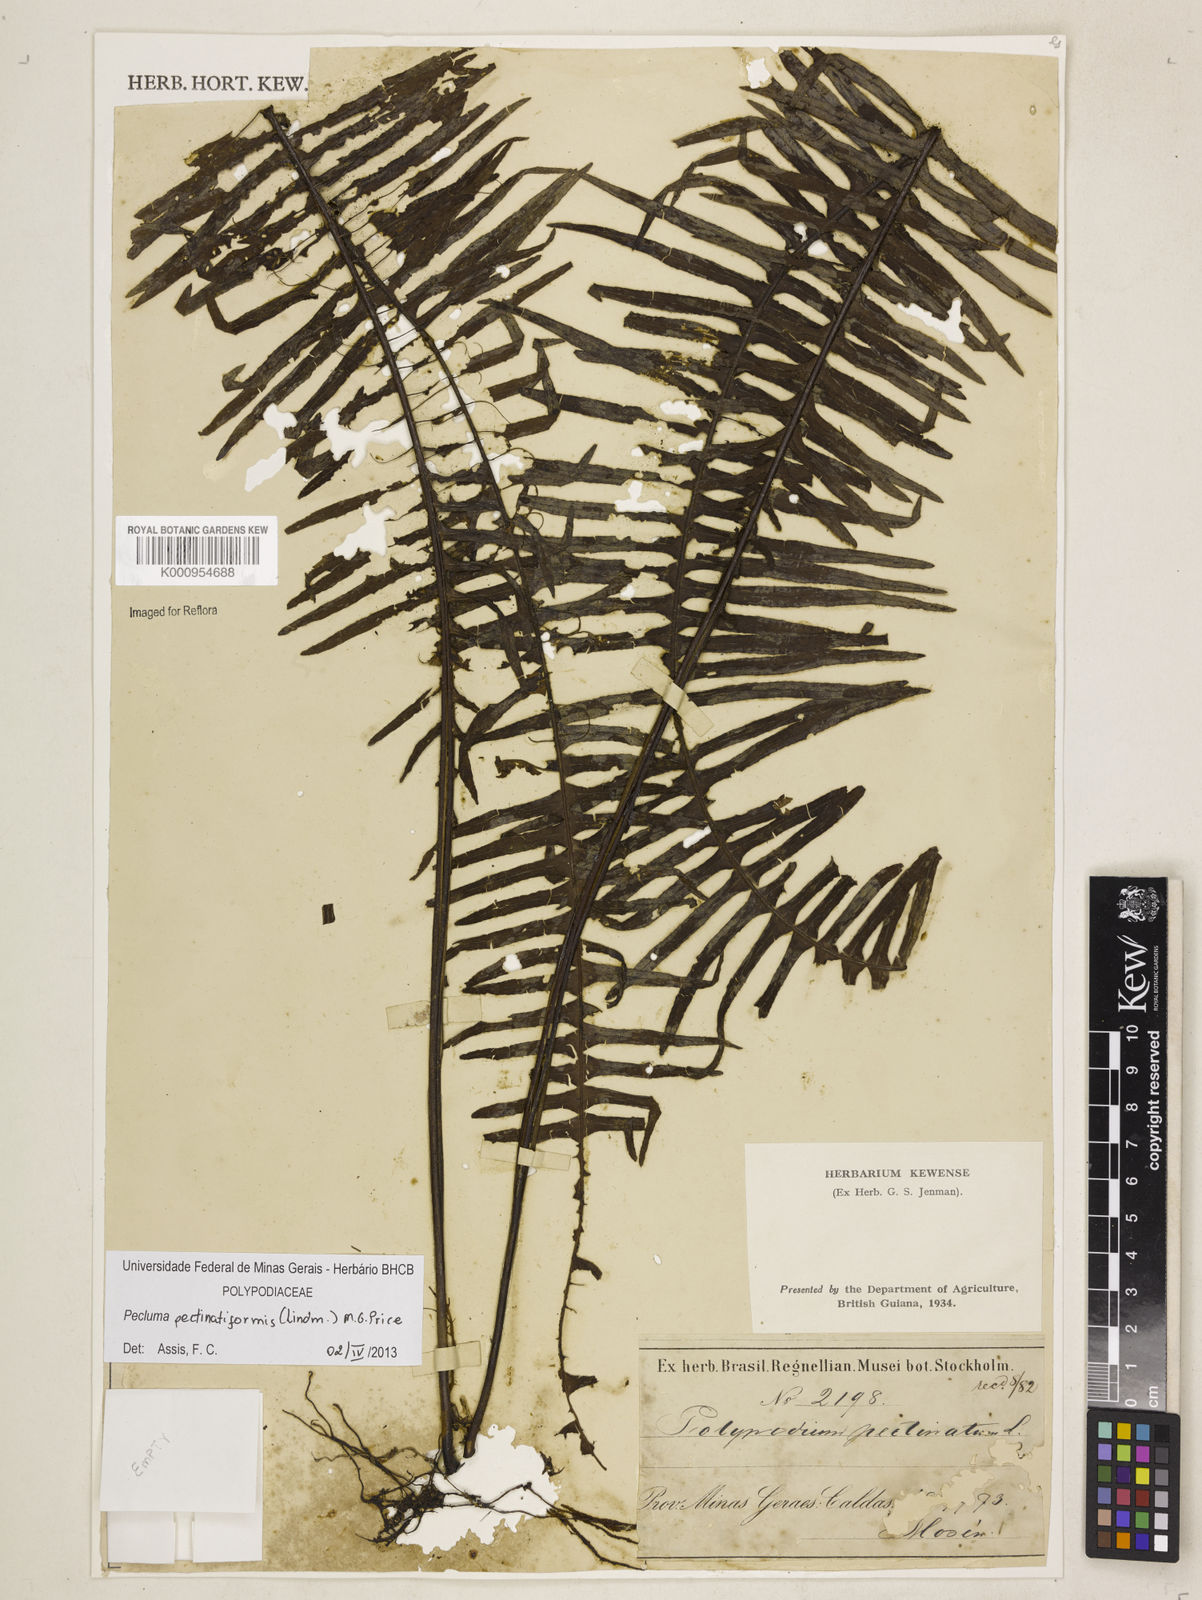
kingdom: Plantae
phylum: Tracheophyta
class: Polypodiopsida
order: Polypodiales
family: Polypodiaceae
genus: Pecluma
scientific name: Pecluma pectinatiformis
